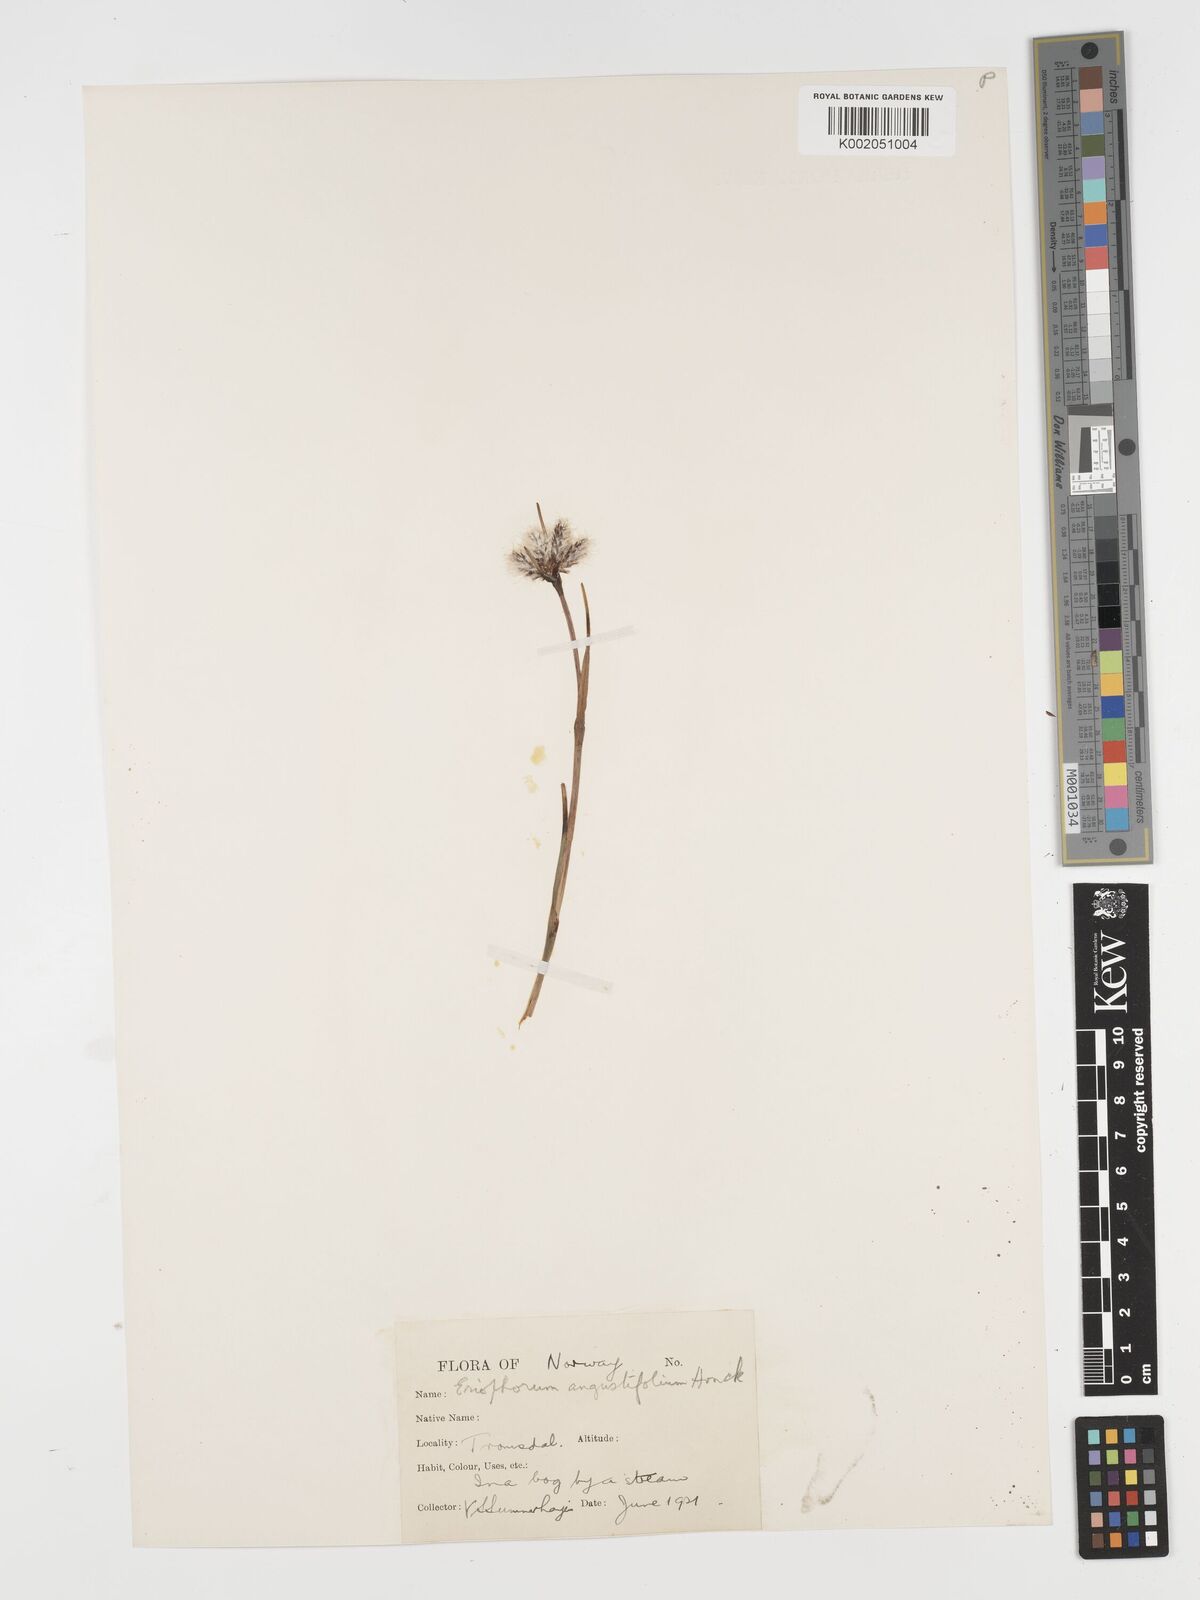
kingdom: Plantae
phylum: Tracheophyta
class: Liliopsida
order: Poales
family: Cyperaceae
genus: Eriophorum
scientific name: Eriophorum angustifolium
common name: Common cottongrass
